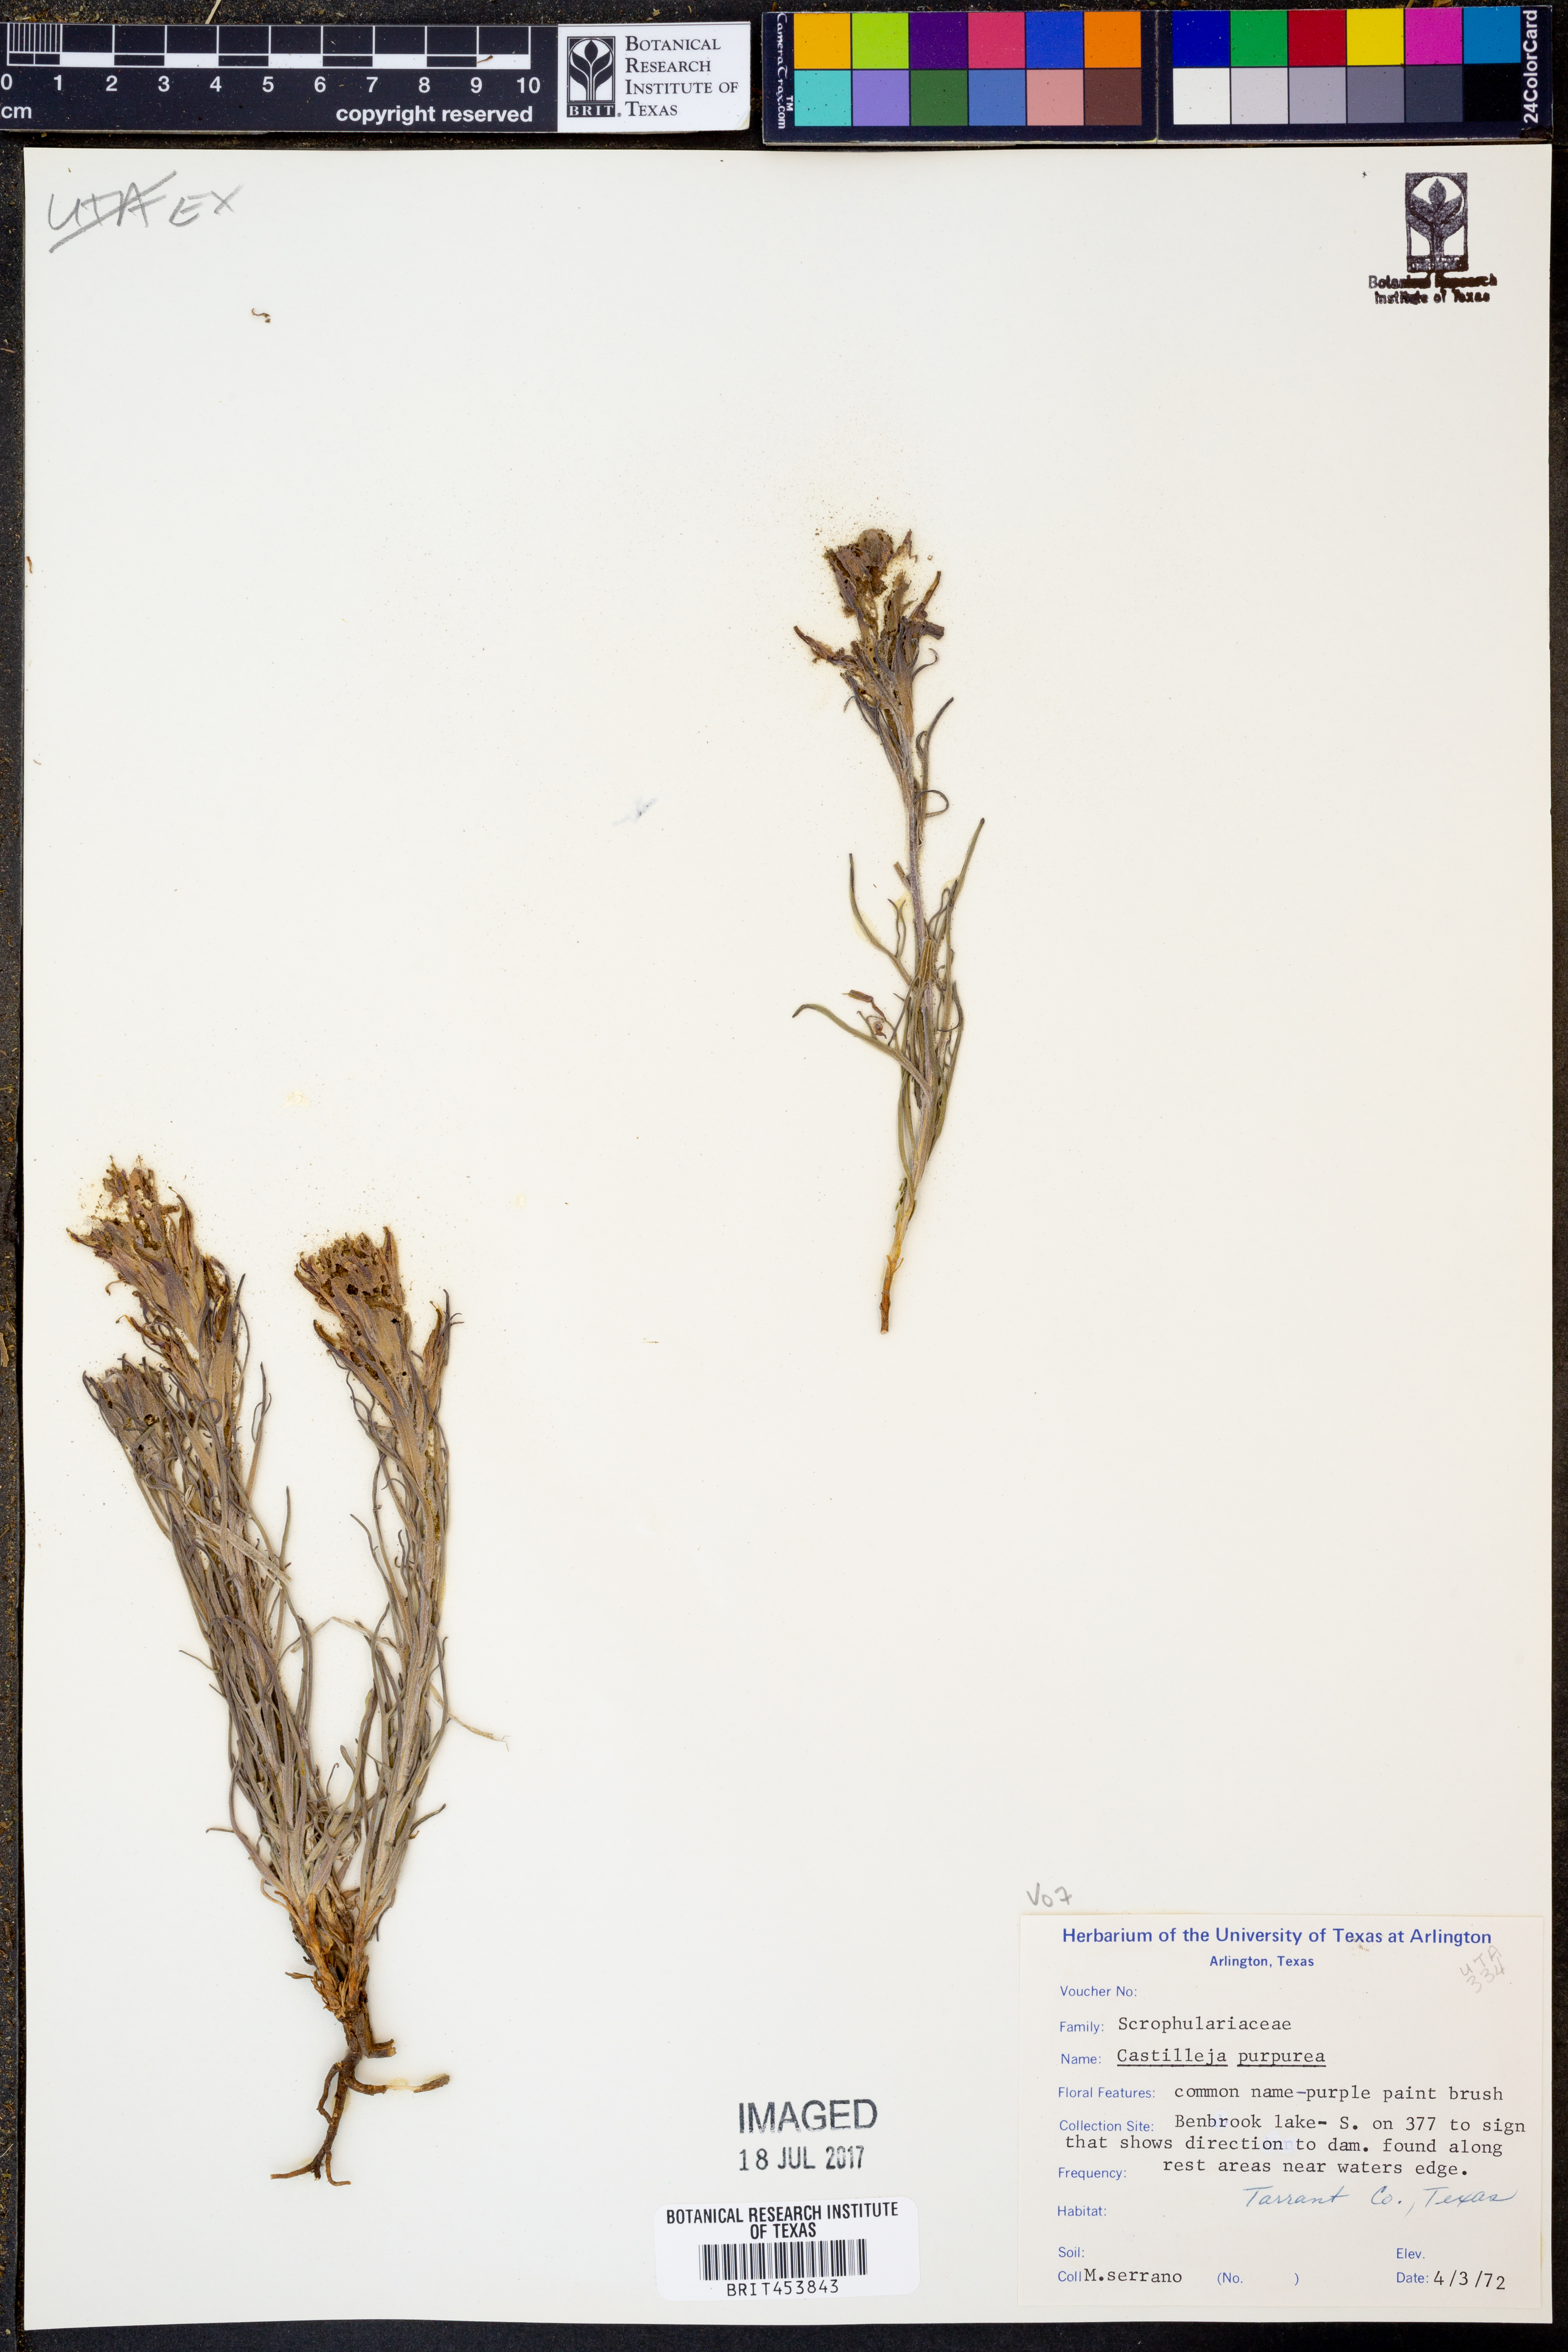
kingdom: Plantae
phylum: Tracheophyta
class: Magnoliopsida
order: Lamiales
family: Orobanchaceae
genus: Castilleja
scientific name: Castilleja purpurea
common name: Plains paintbrush
